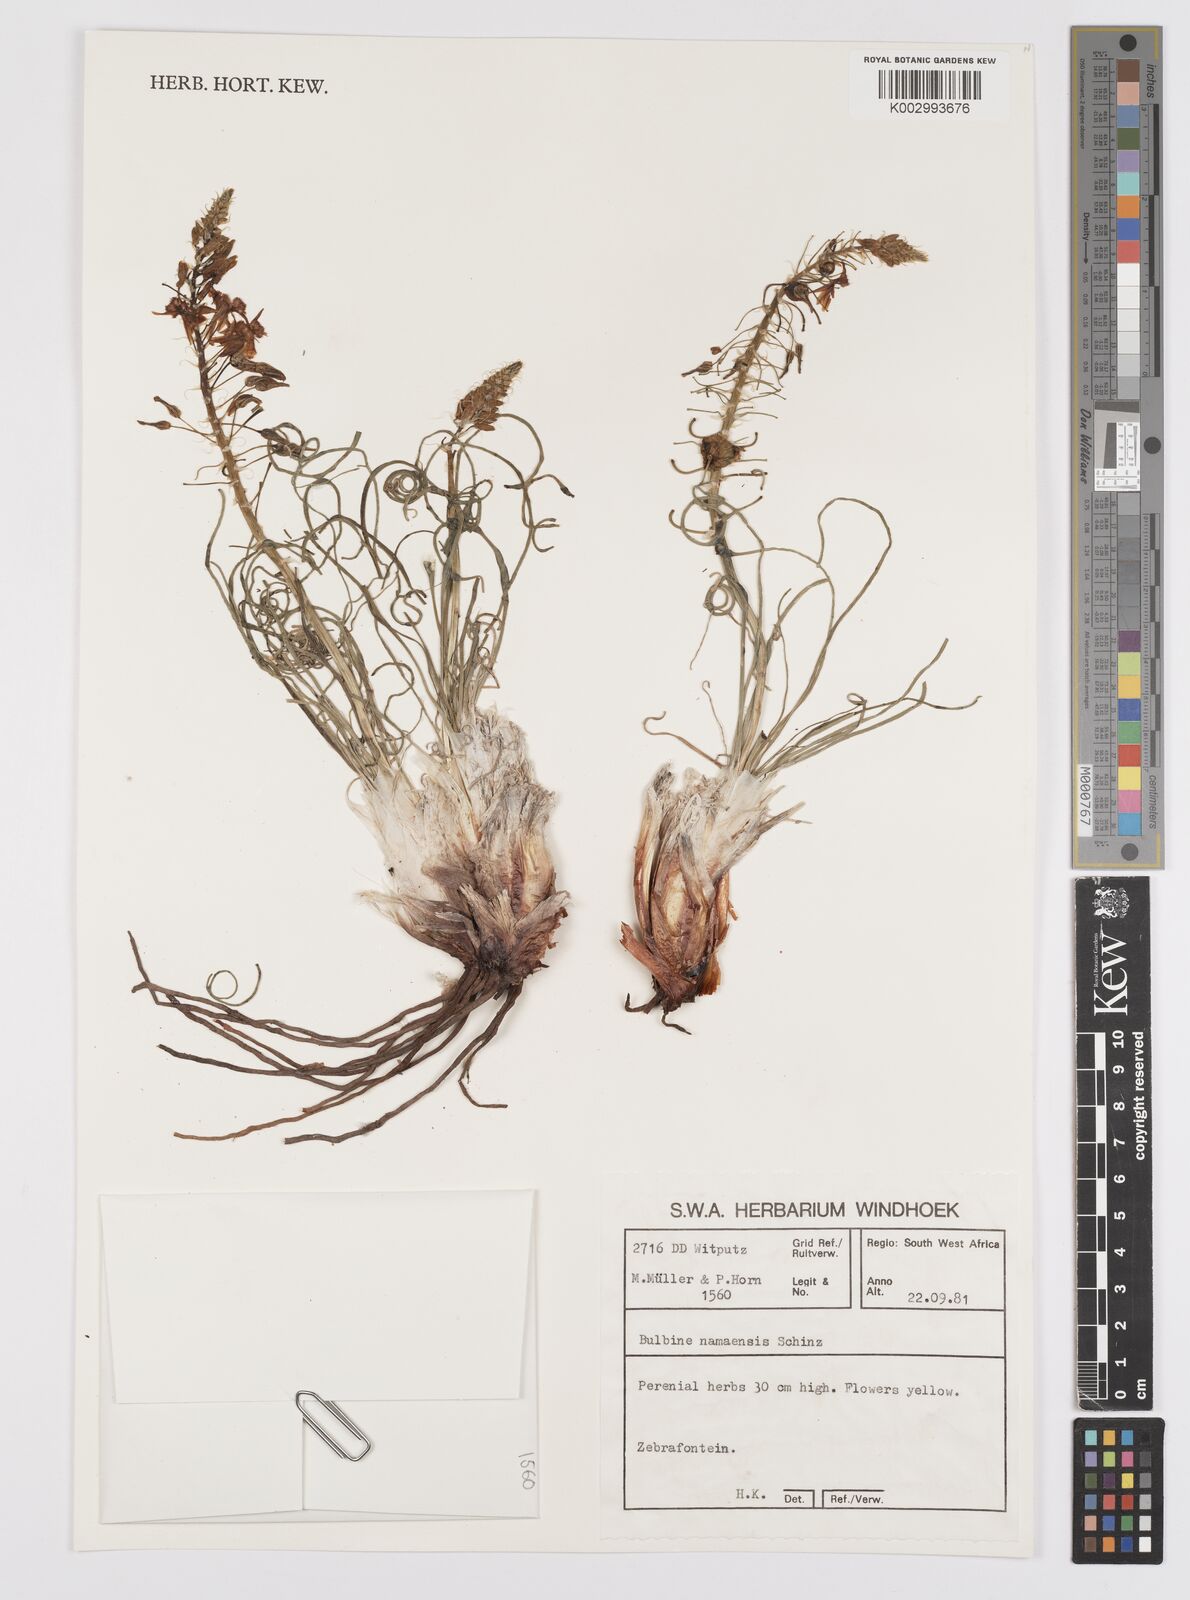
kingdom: Plantae
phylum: Tracheophyta
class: Liliopsida
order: Asparagales
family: Asphodelaceae
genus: Bulbine
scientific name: Bulbine namaensis
